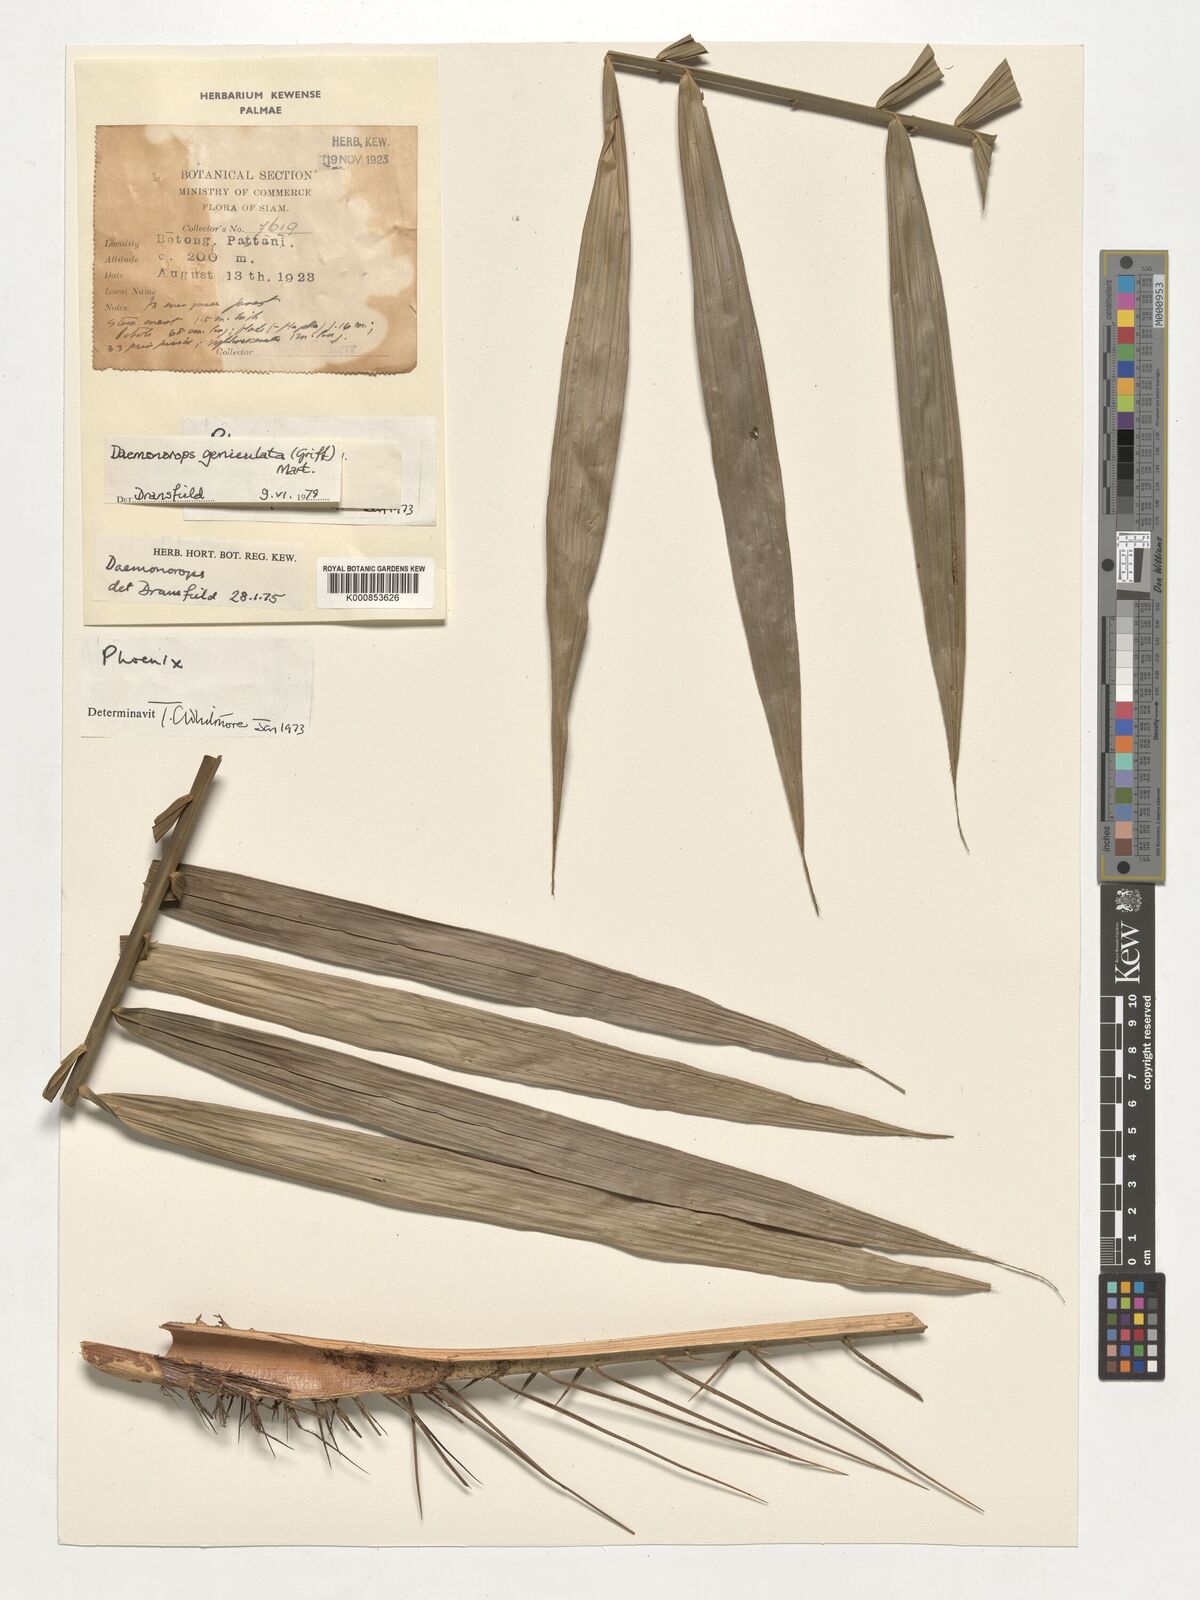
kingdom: Plantae
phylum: Tracheophyta
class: Liliopsida
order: Arecales
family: Arecaceae
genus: Calamus
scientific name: Calamus geniculatus
